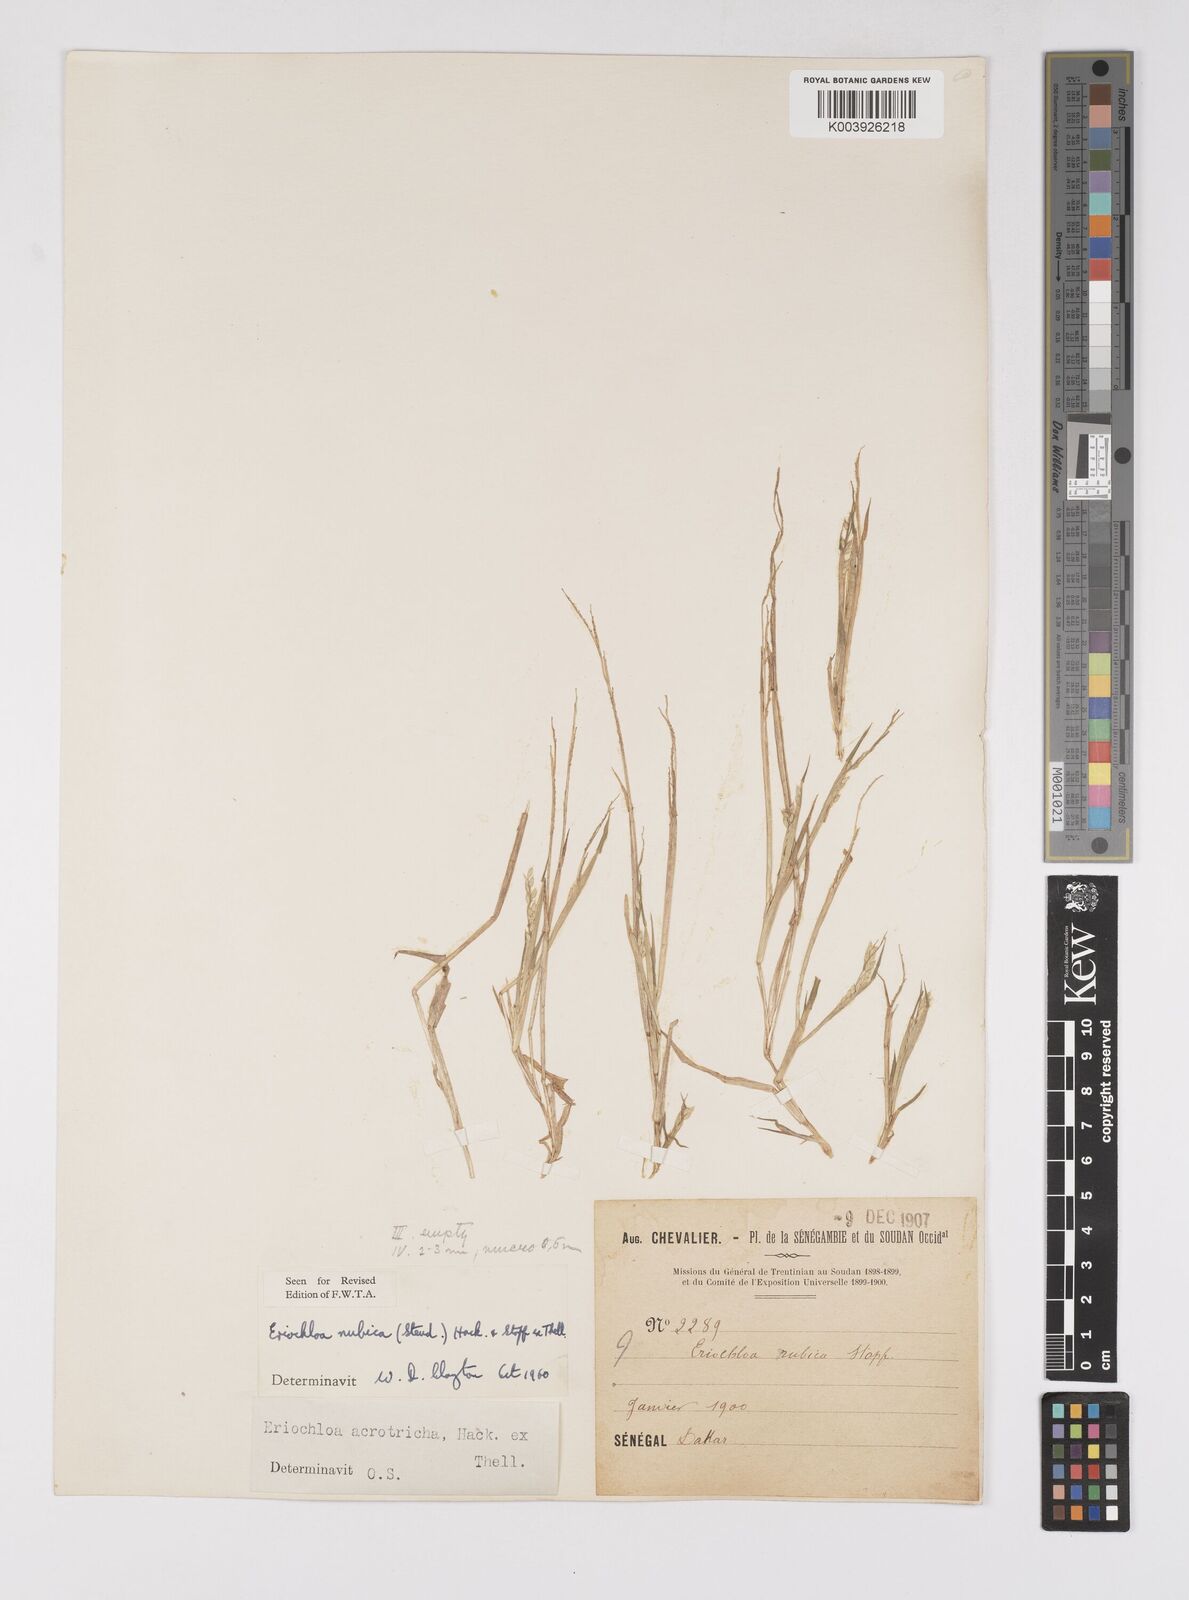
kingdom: Plantae
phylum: Tracheophyta
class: Liliopsida
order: Poales
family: Poaceae
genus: Eriochloa
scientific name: Eriochloa barbatus
